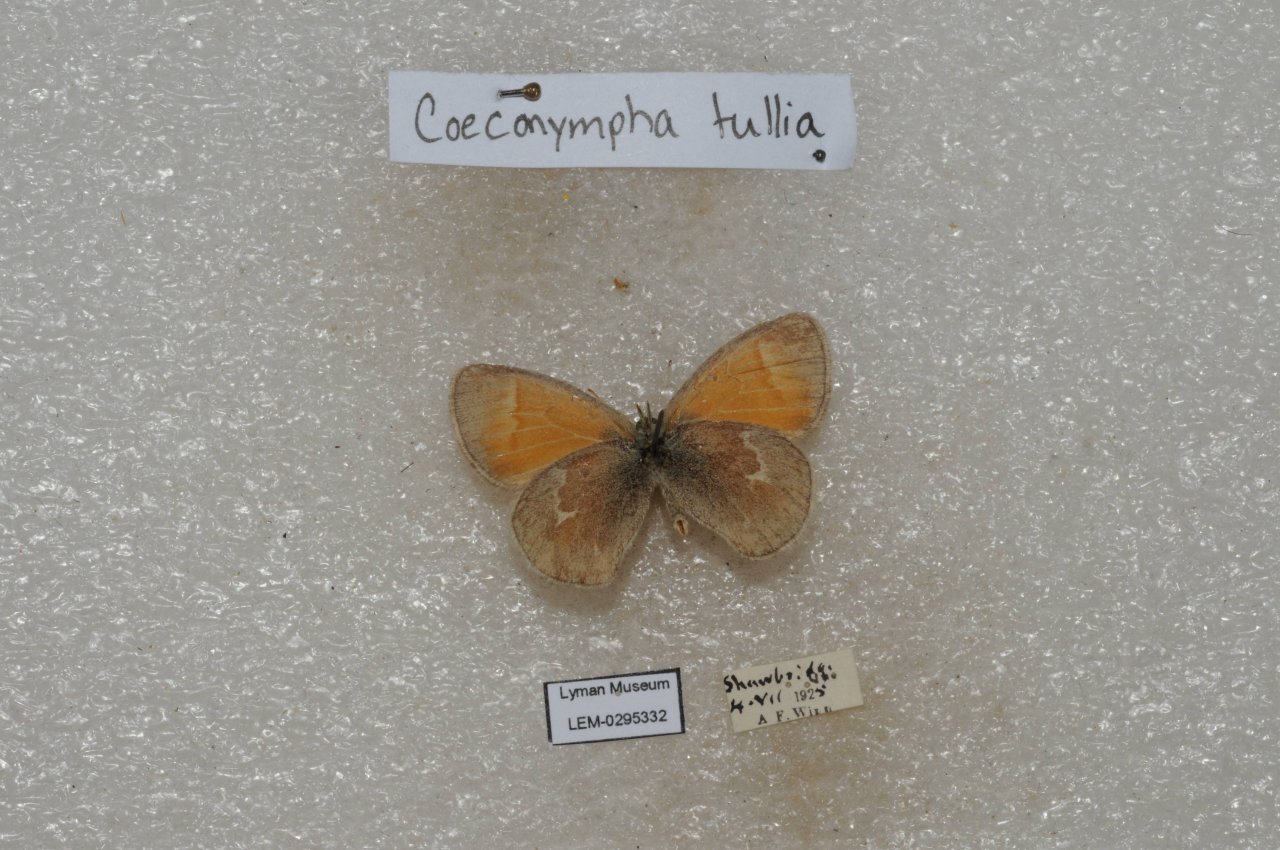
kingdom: Animalia
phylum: Arthropoda
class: Insecta
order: Lepidoptera
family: Nymphalidae
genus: Coenonympha
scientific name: Coenonympha tullia
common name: Large Heath
